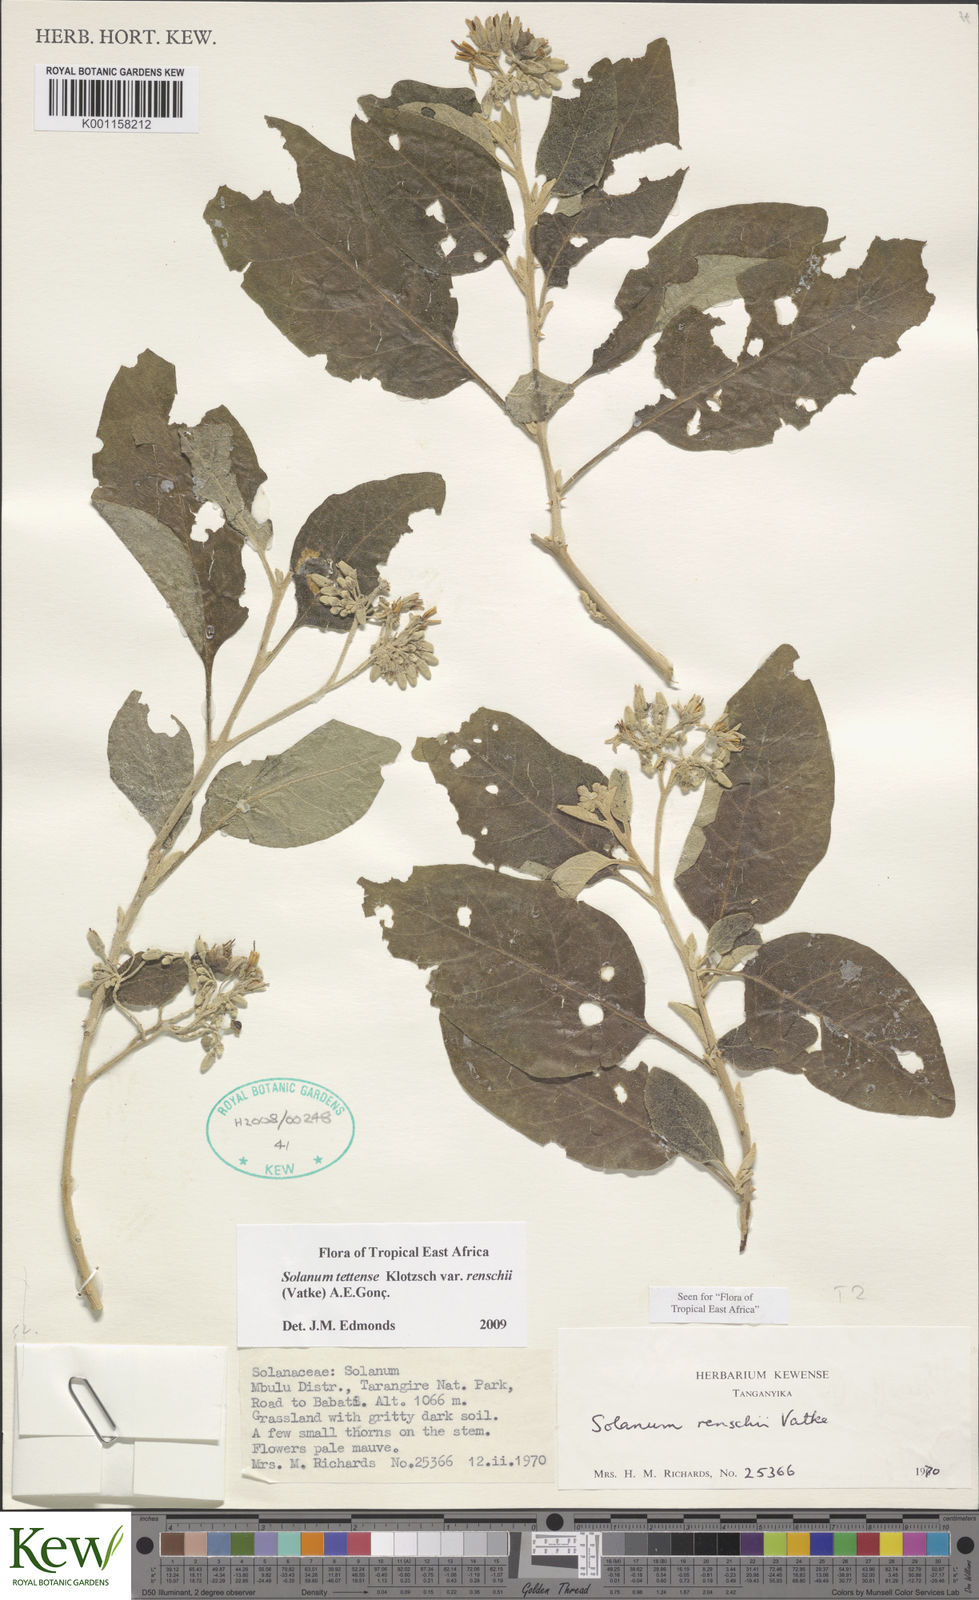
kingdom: Plantae
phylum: Tracheophyta
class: Magnoliopsida
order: Solanales
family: Solanaceae
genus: Solanum
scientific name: Solanum tettense
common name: Mozambique bitter apple
